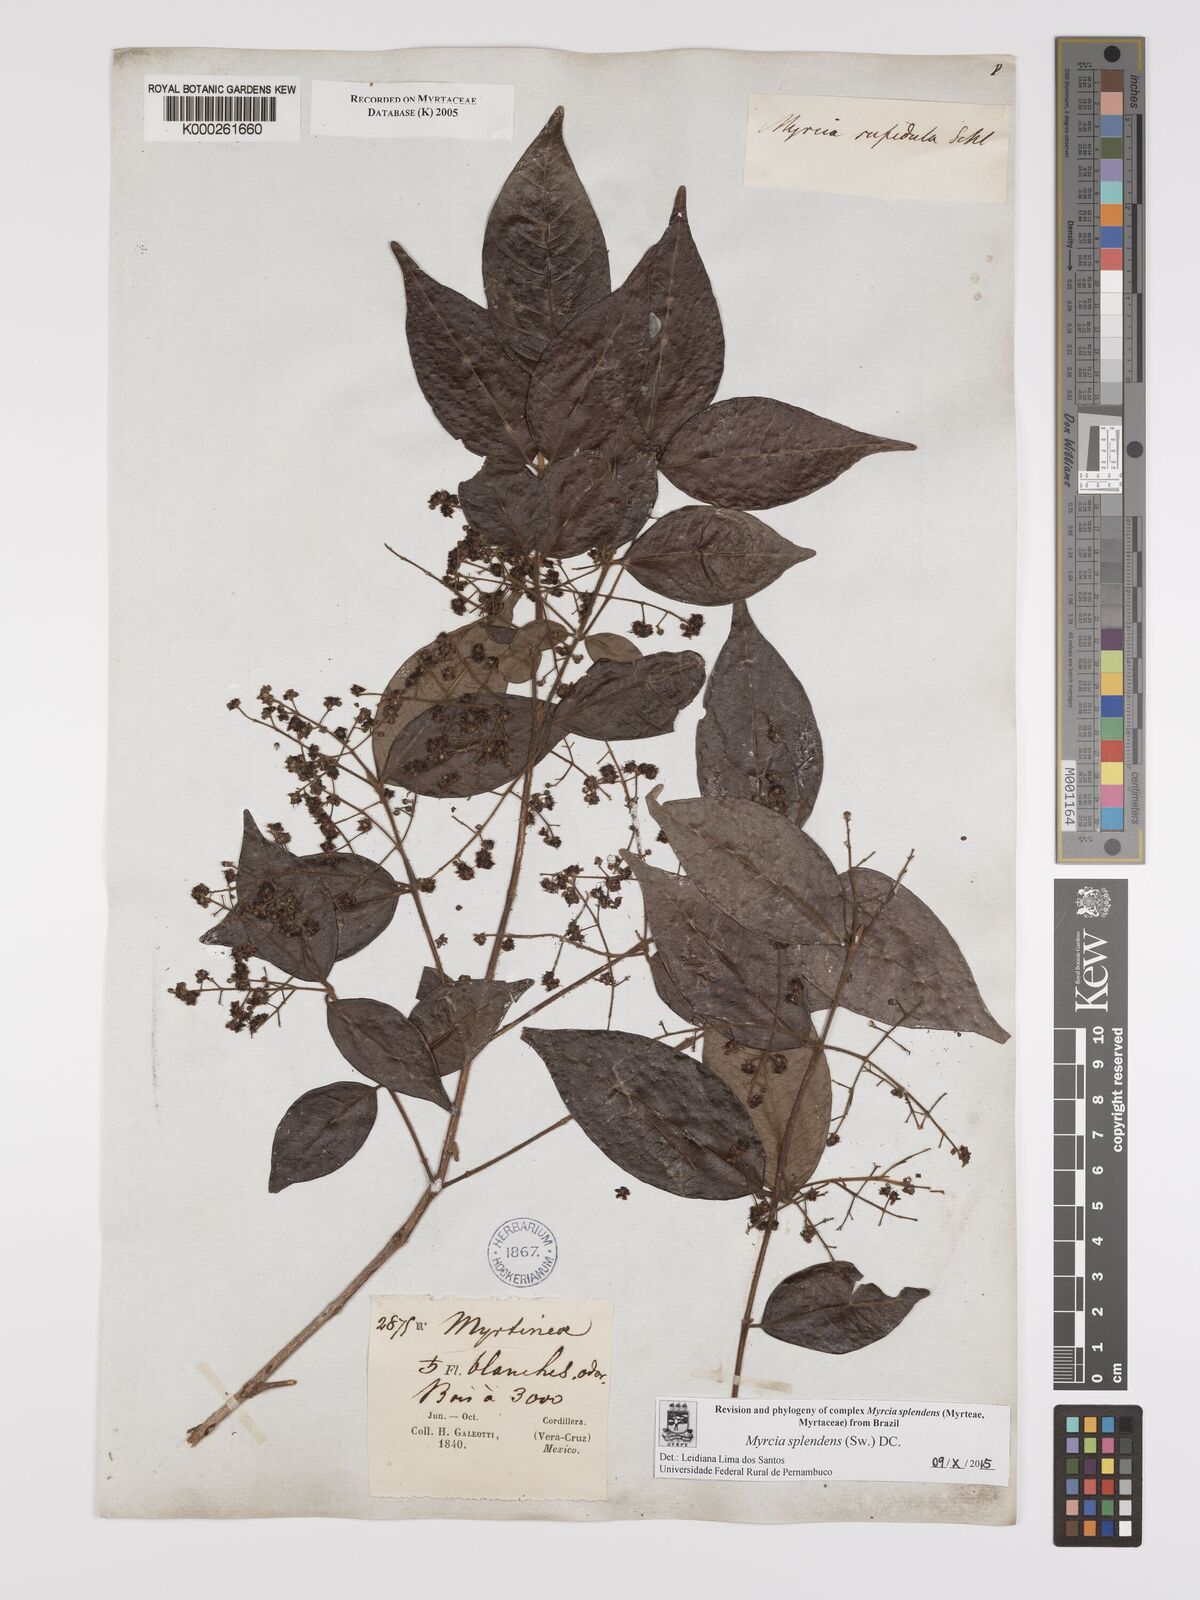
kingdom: Plantae
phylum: Tracheophyta
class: Magnoliopsida
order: Myrtales
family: Myrtaceae
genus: Myrcia
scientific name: Myrcia splendens
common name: Surinam cherry
